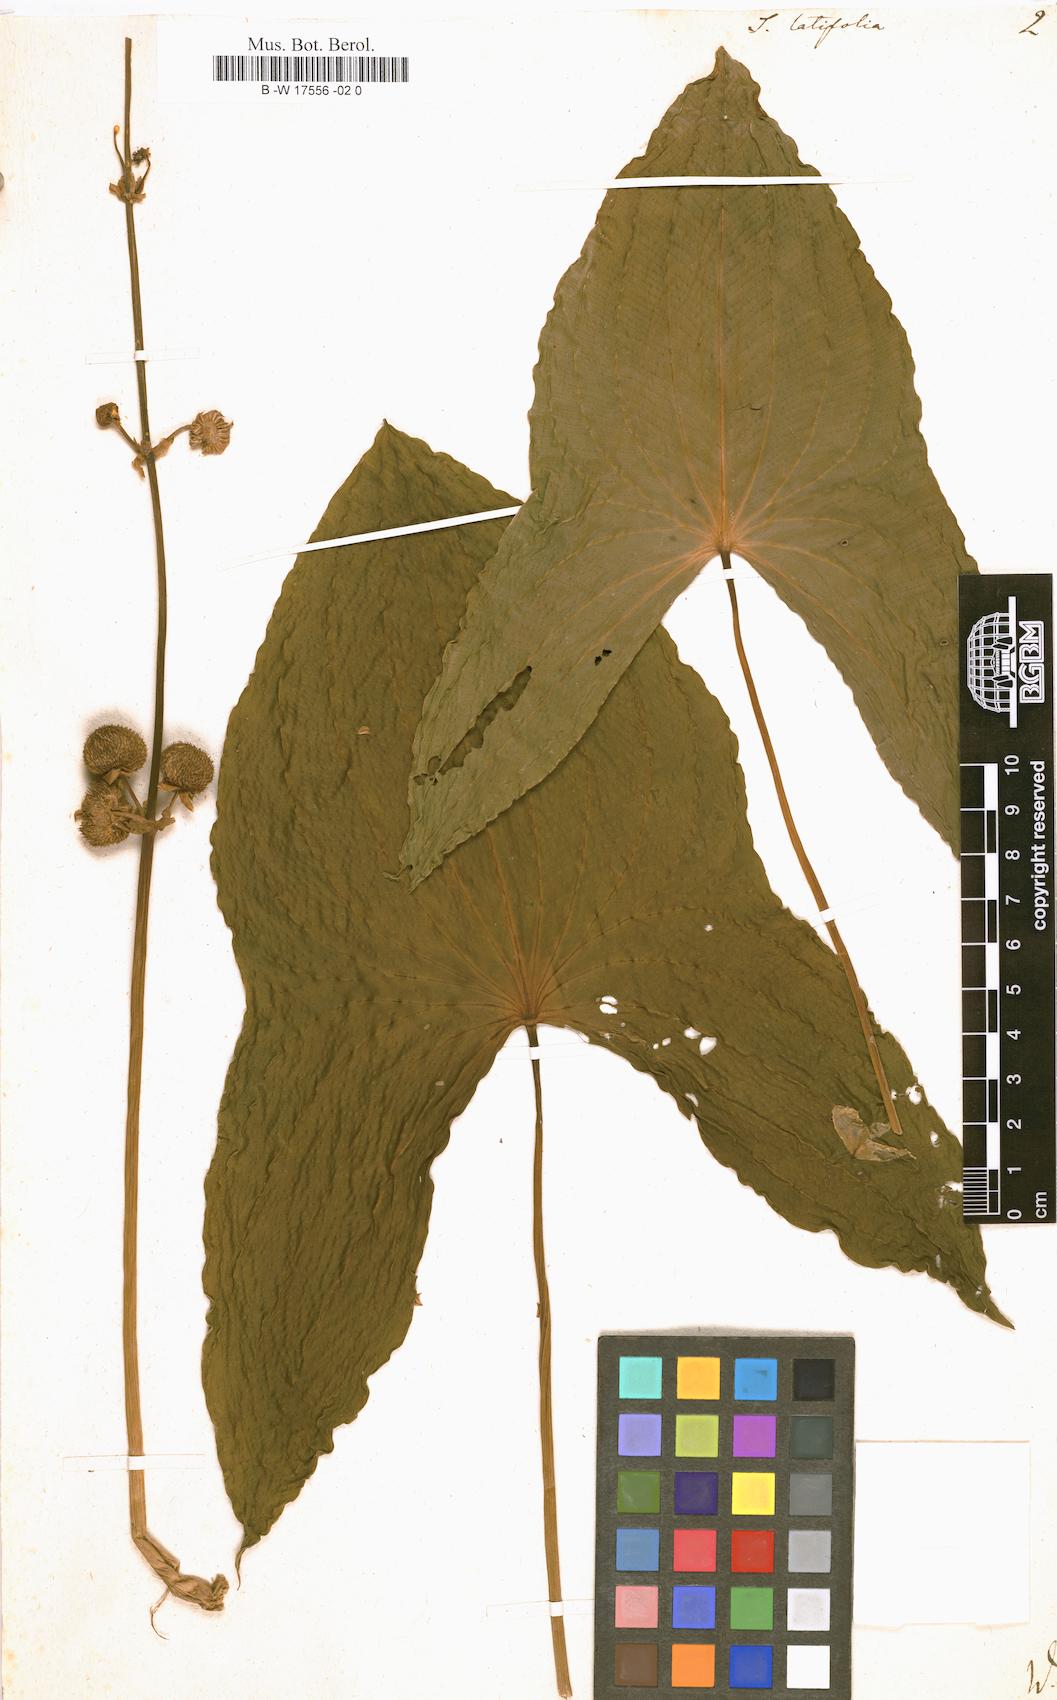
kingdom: Plantae
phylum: Tracheophyta
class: Liliopsida
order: Alismatales
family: Alismataceae
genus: Sagittaria
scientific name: Sagittaria latifolia
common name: Duck-potato
